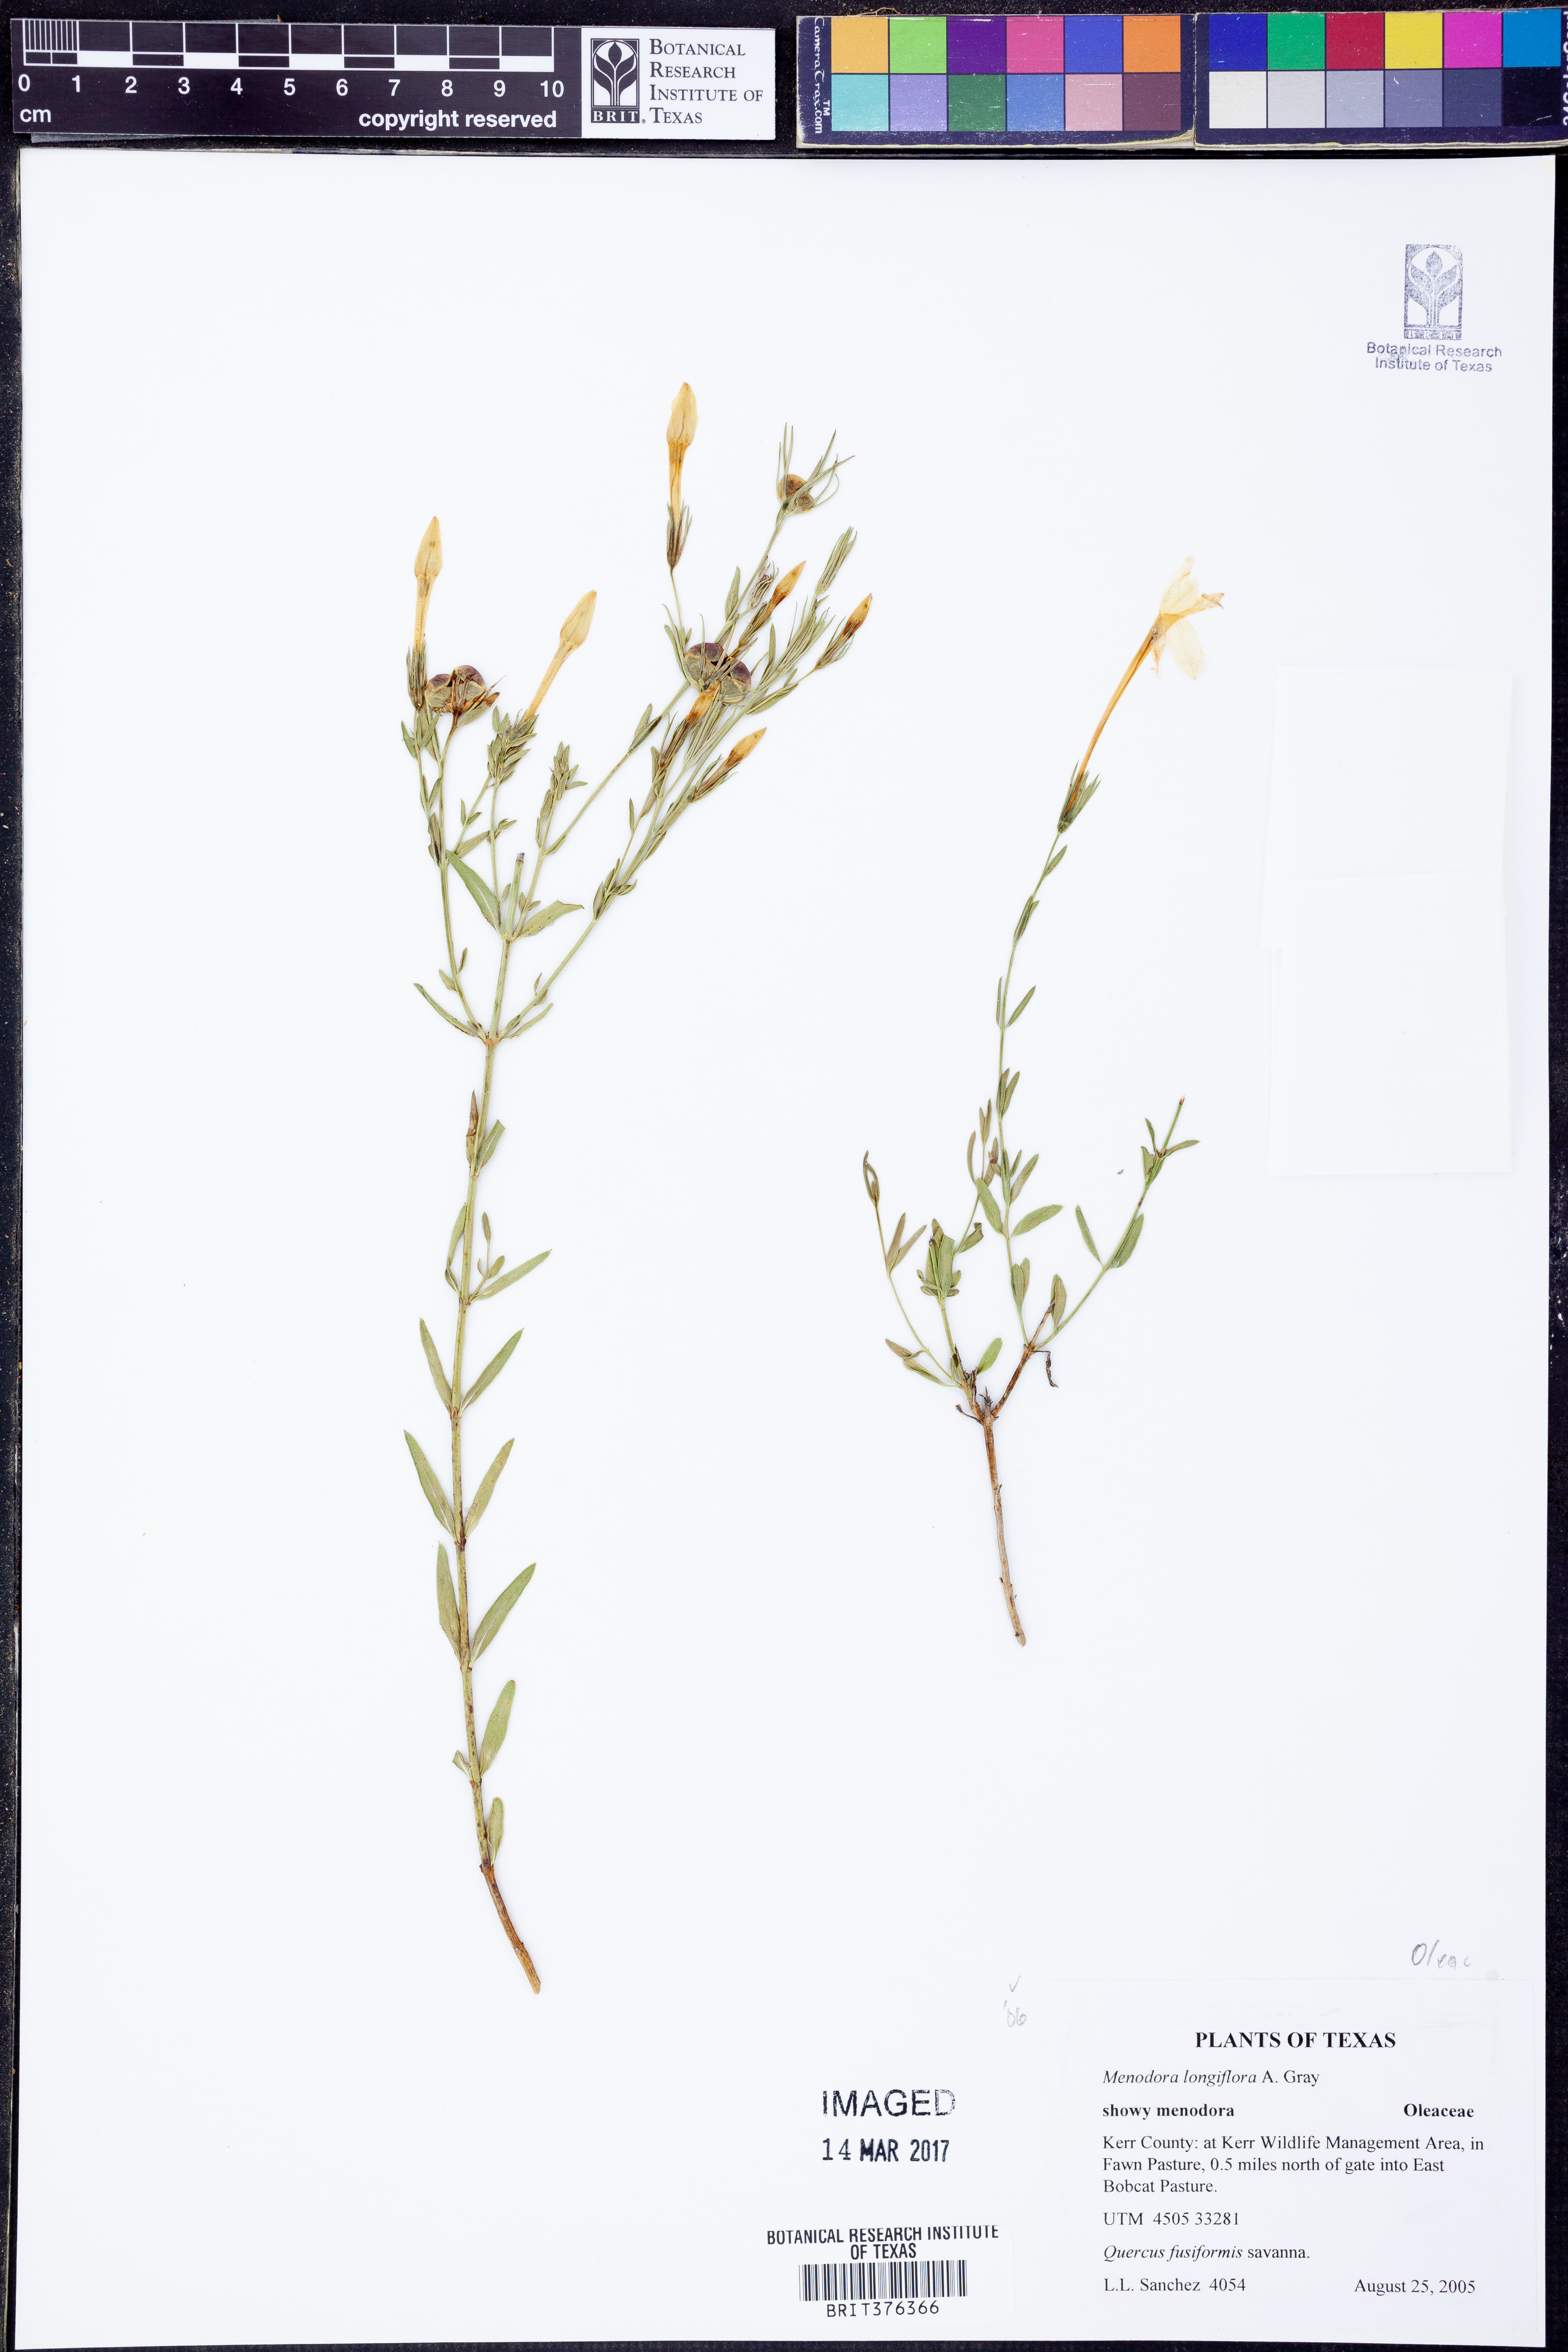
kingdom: Plantae
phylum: Tracheophyta
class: Magnoliopsida
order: Lamiales
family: Oleaceae
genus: Menodora
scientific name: Menodora longiflora
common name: Showy menodora
